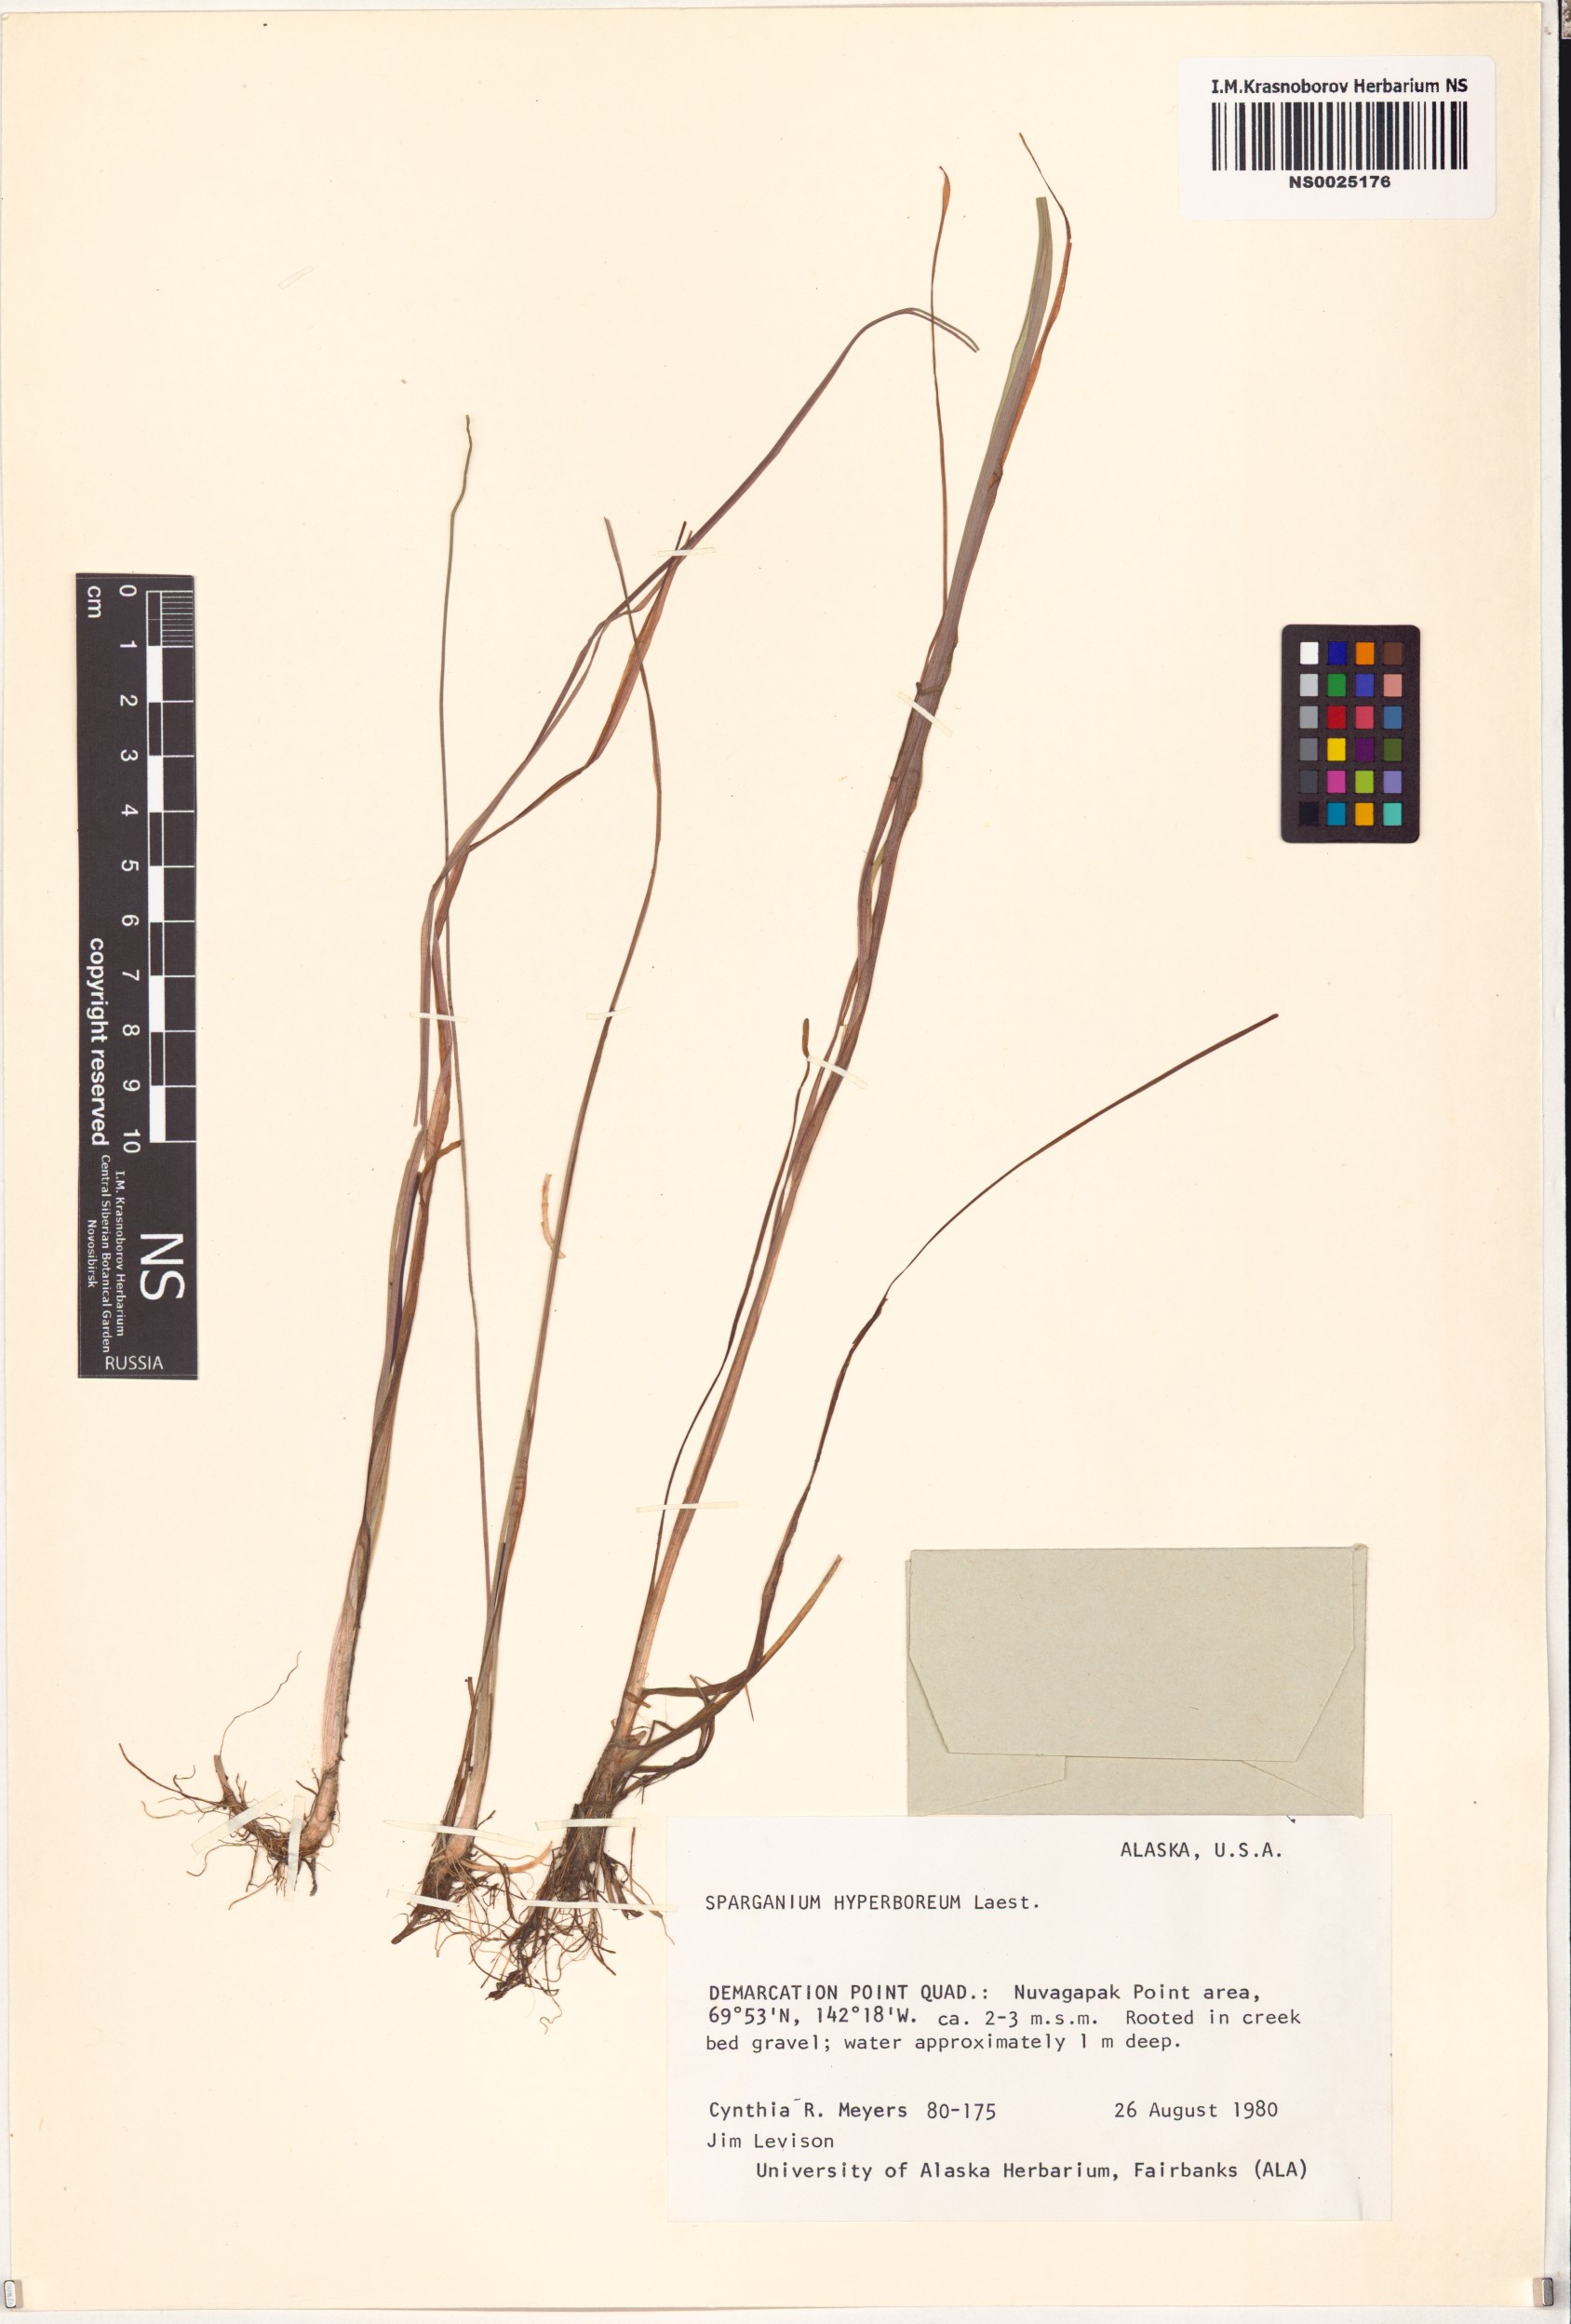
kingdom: Plantae
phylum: Tracheophyta
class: Liliopsida
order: Poales
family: Typhaceae
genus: Sparganium
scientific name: Sparganium hyperboreum
